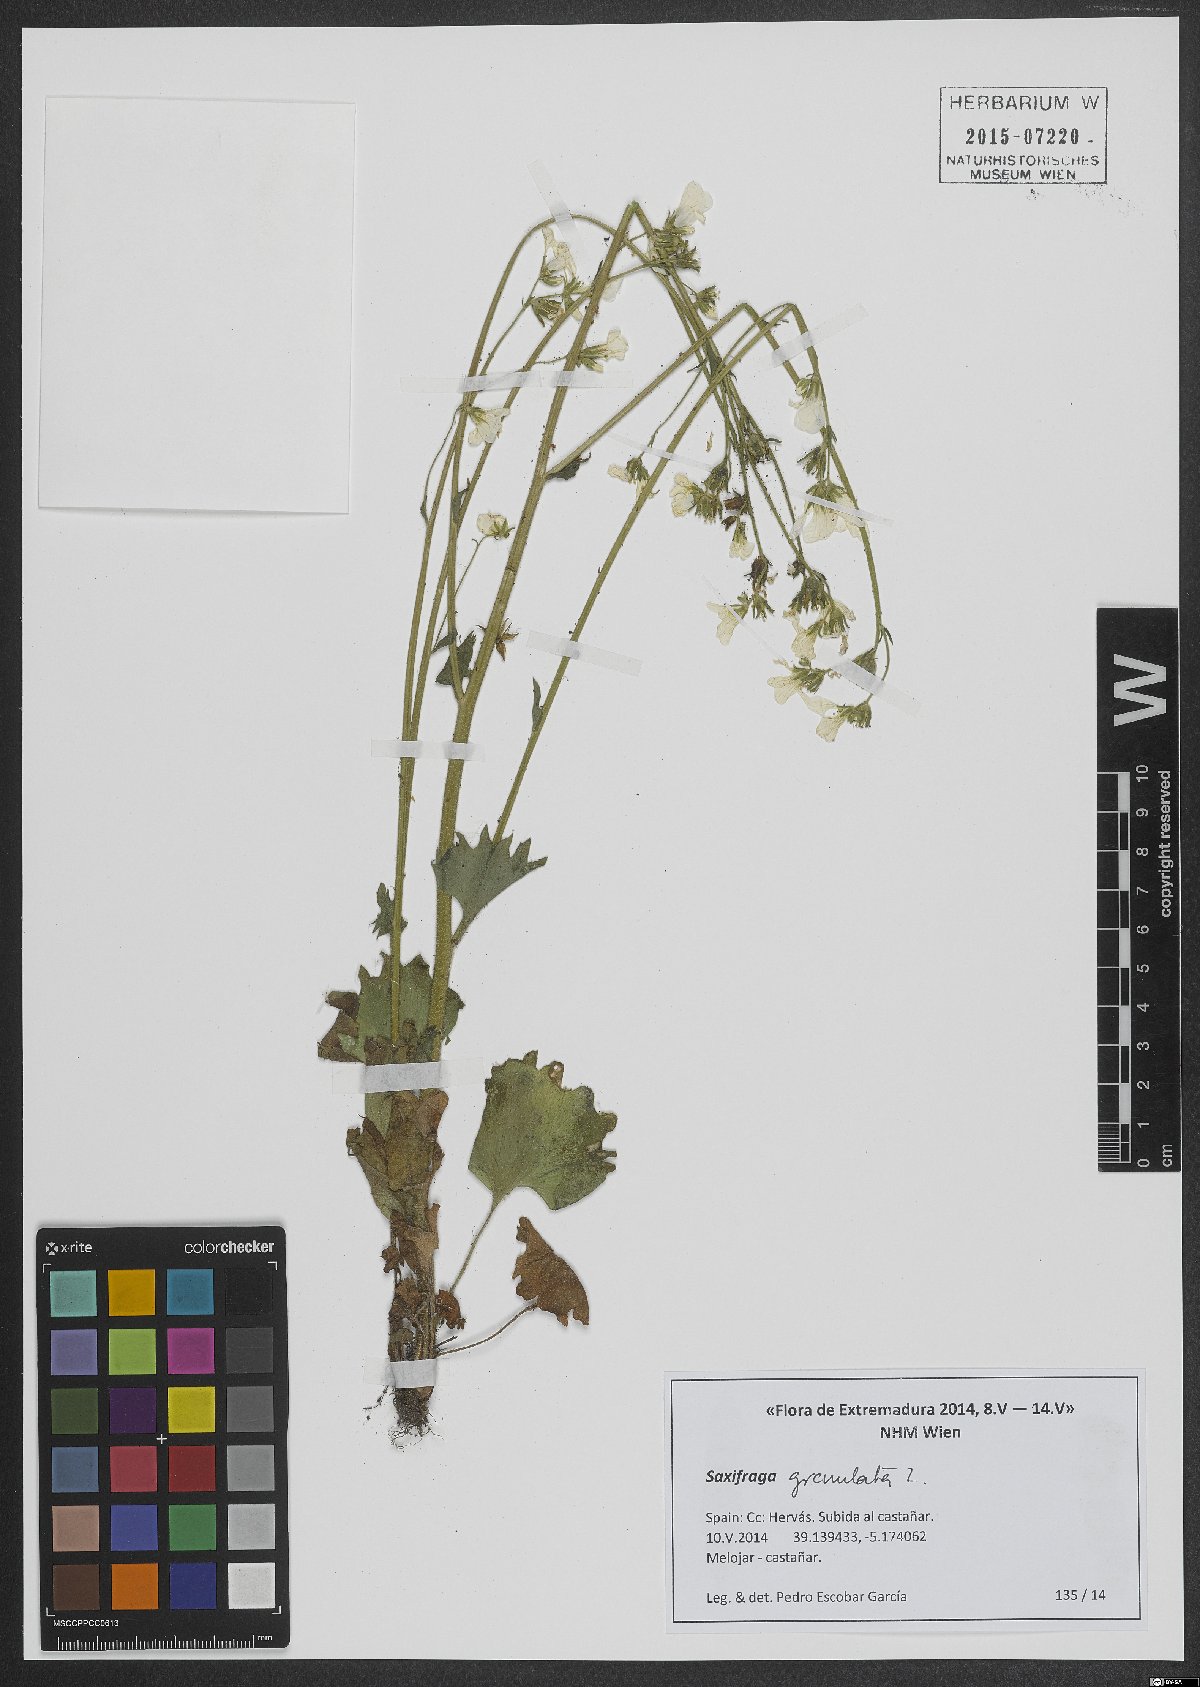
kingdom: Plantae
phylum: Tracheophyta
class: Magnoliopsida
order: Saxifragales
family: Saxifragaceae
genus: Saxifraga
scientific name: Saxifraga granulata
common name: Meadow saxifrage
